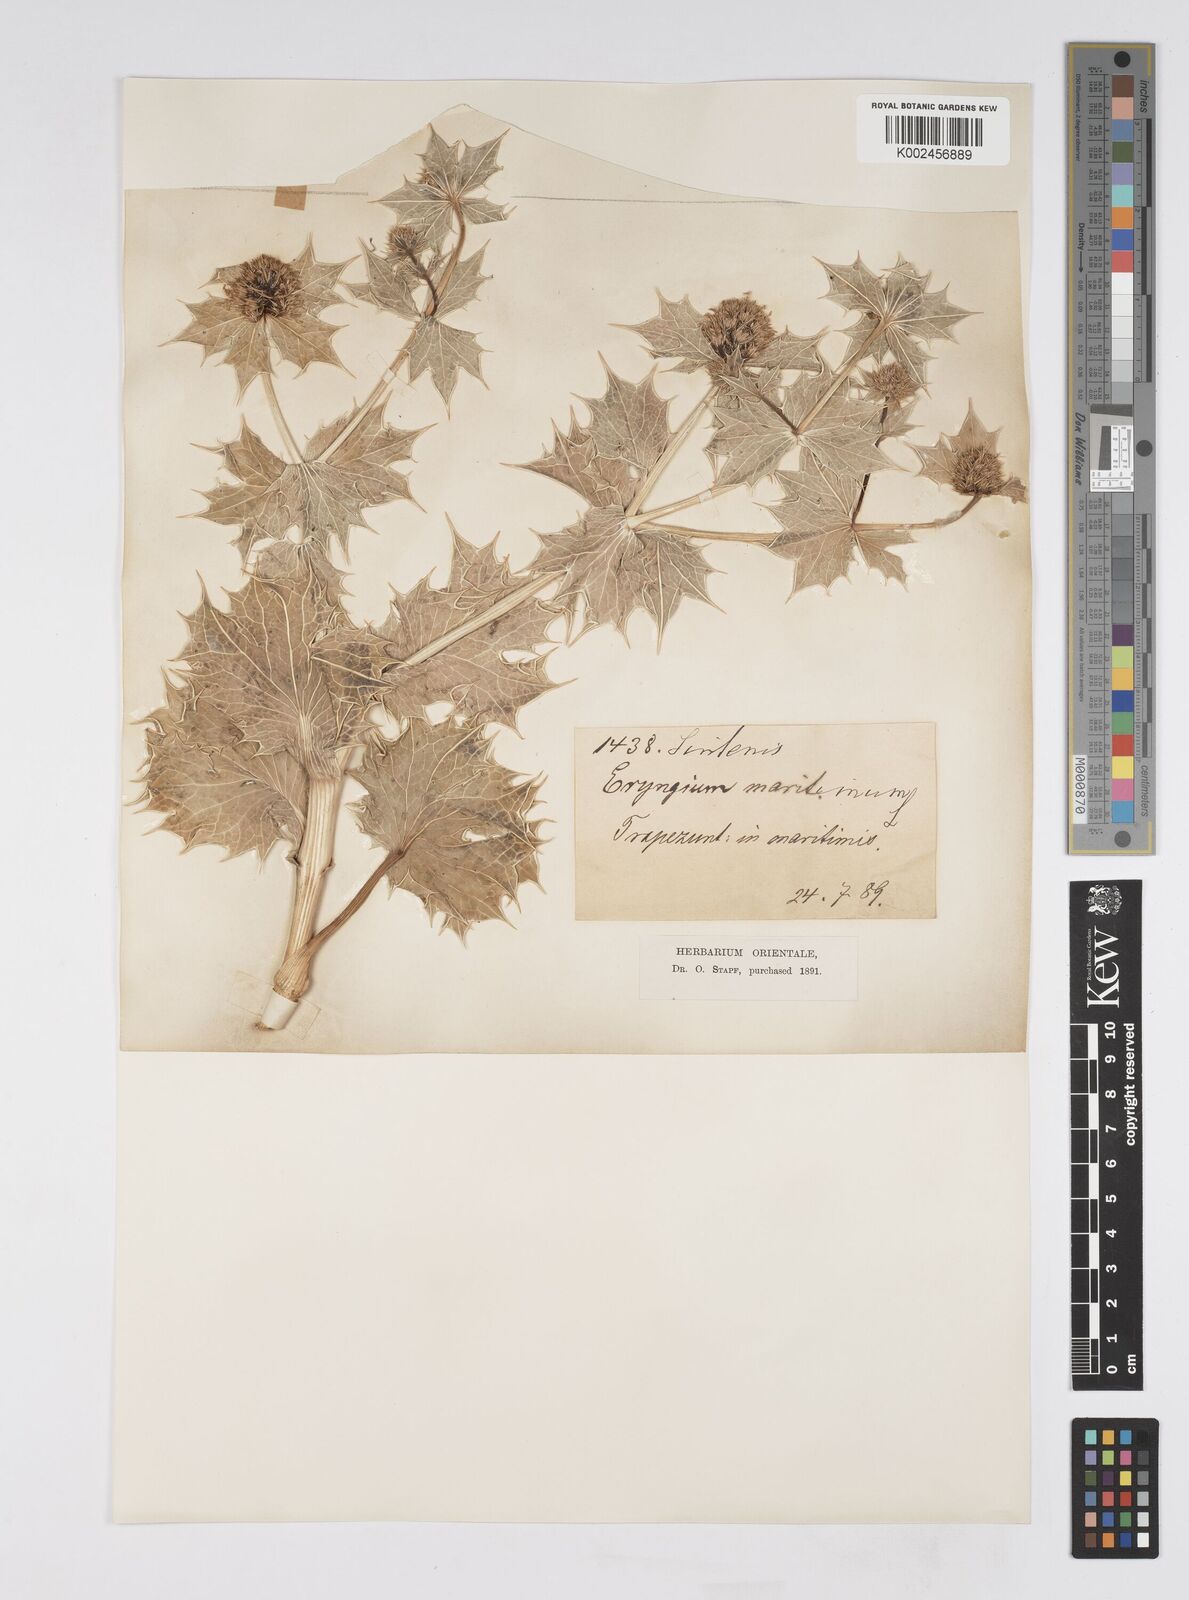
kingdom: Plantae
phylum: Tracheophyta
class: Magnoliopsida
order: Apiales
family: Apiaceae
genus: Eryngium
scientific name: Eryngium maritimum
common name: Sea-holly
